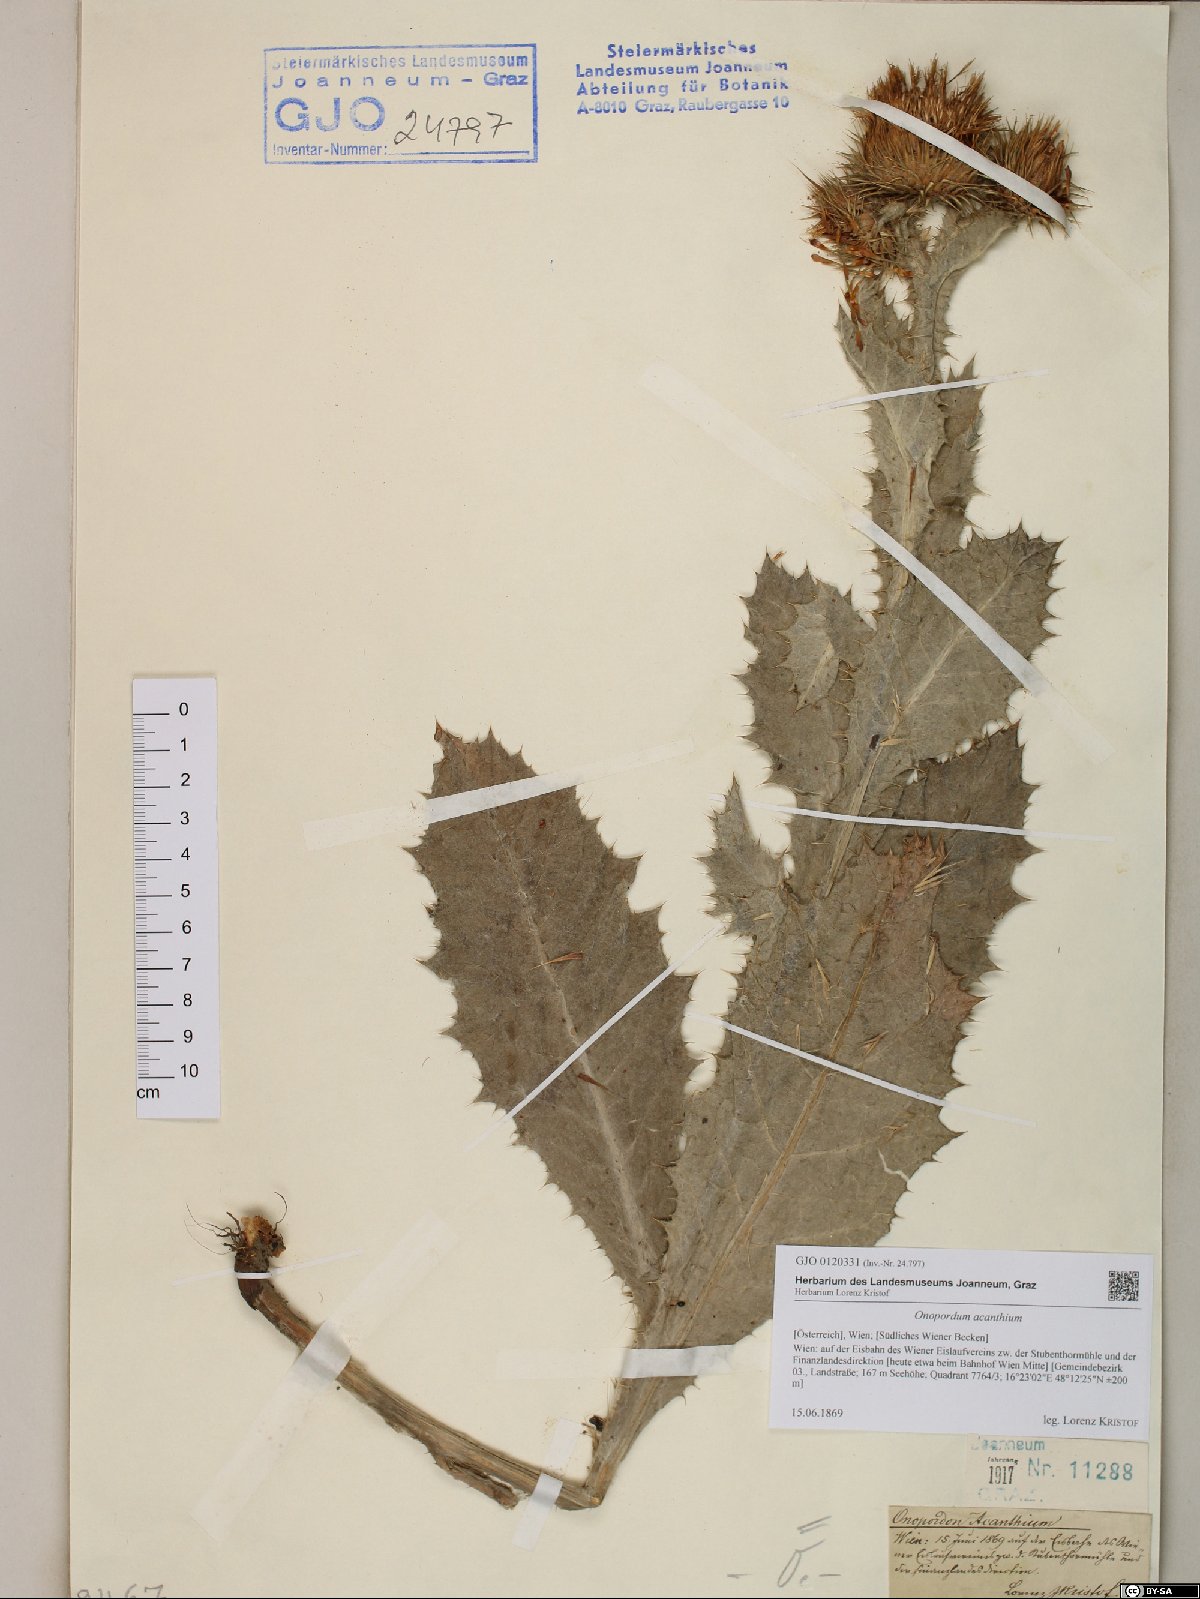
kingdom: Plantae
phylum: Tracheophyta
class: Magnoliopsida
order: Asterales
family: Asteraceae
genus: Onopordum
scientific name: Onopordum acanthium
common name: Scotch thistle
